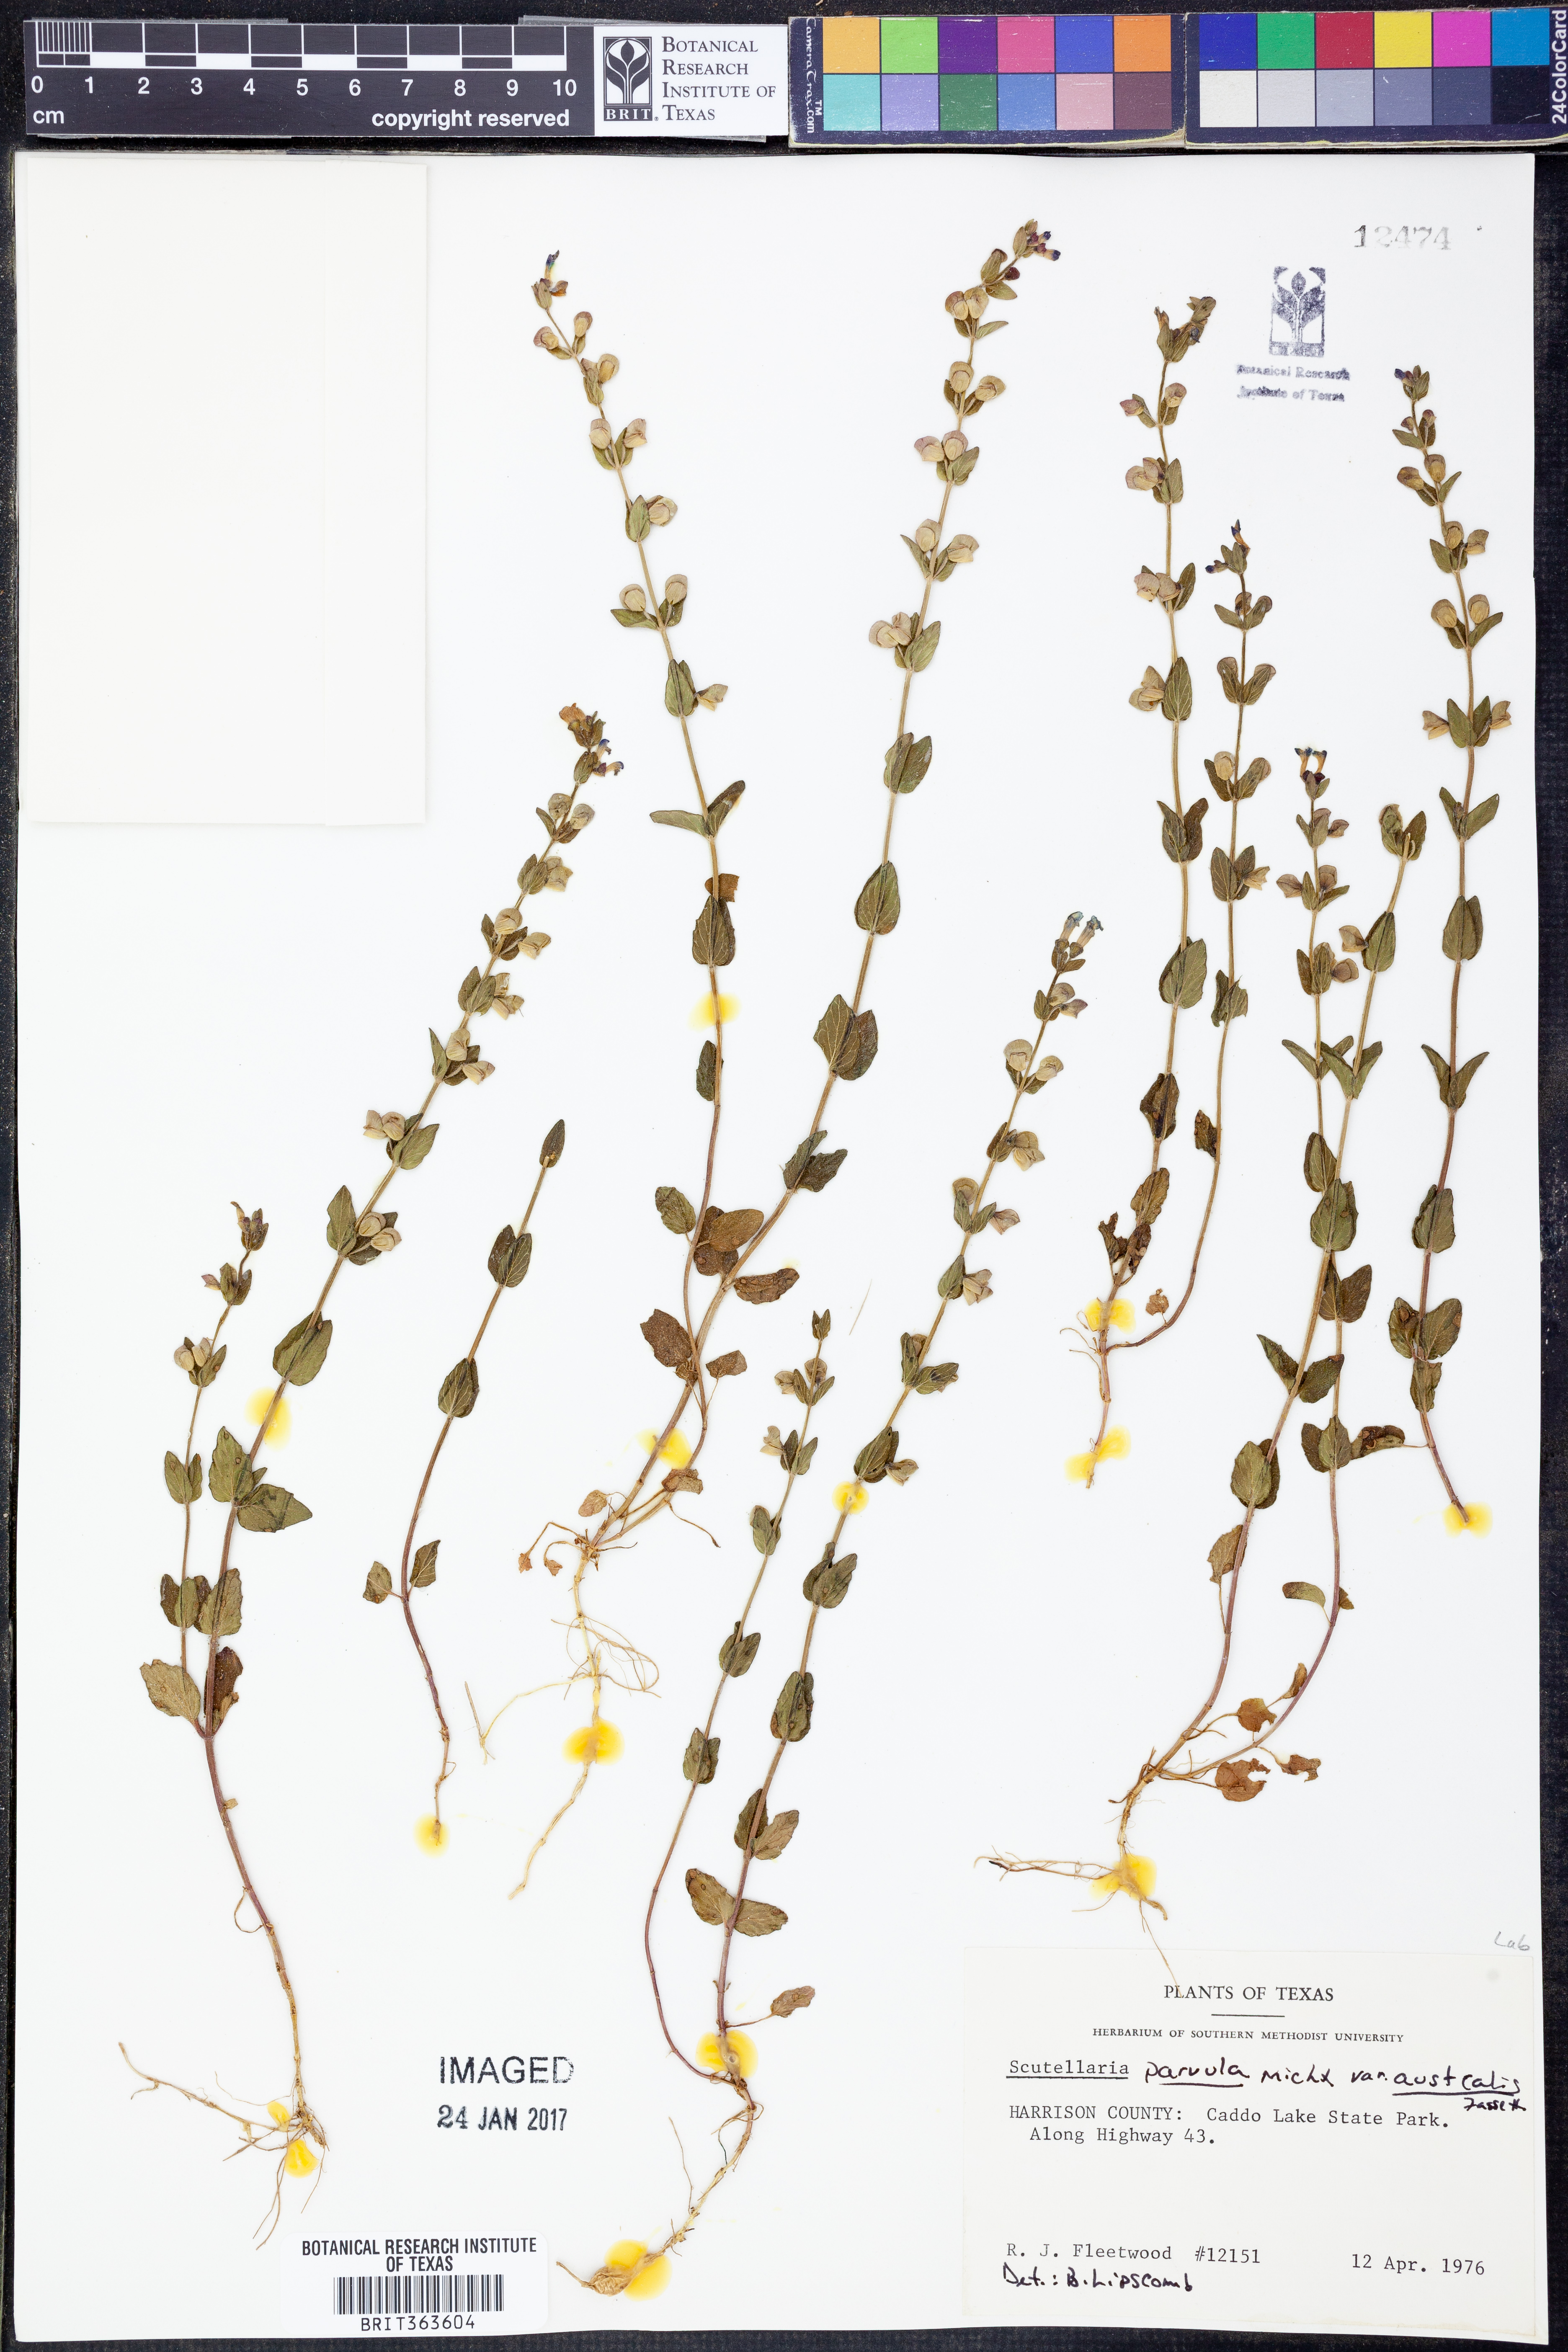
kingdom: Plantae
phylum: Tracheophyta
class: Magnoliopsida
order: Lamiales
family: Lamiaceae
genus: Scutellaria
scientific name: Scutellaria parvula
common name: Little scullcap
